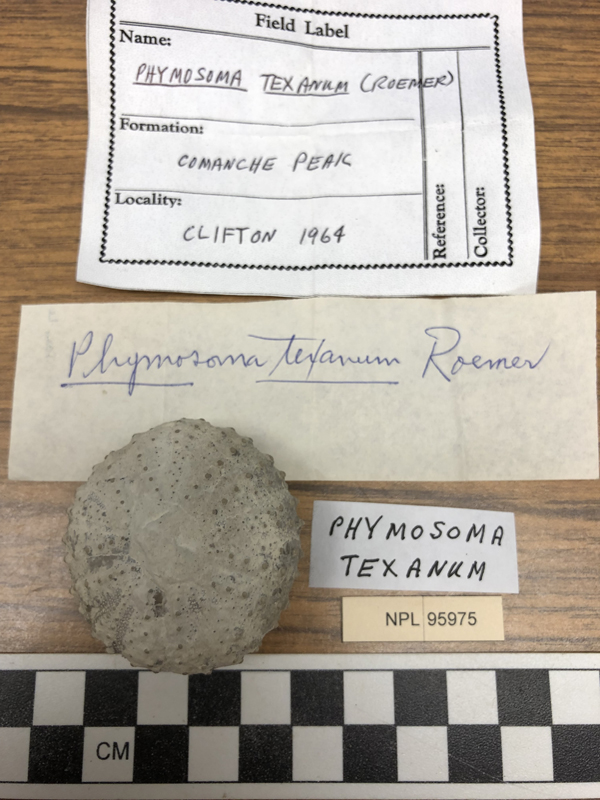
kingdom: Animalia
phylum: Echinodermata
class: Echinoidea
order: Phymosomatoida
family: Phymosomatidae
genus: Phymosoma
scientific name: Phymosoma
